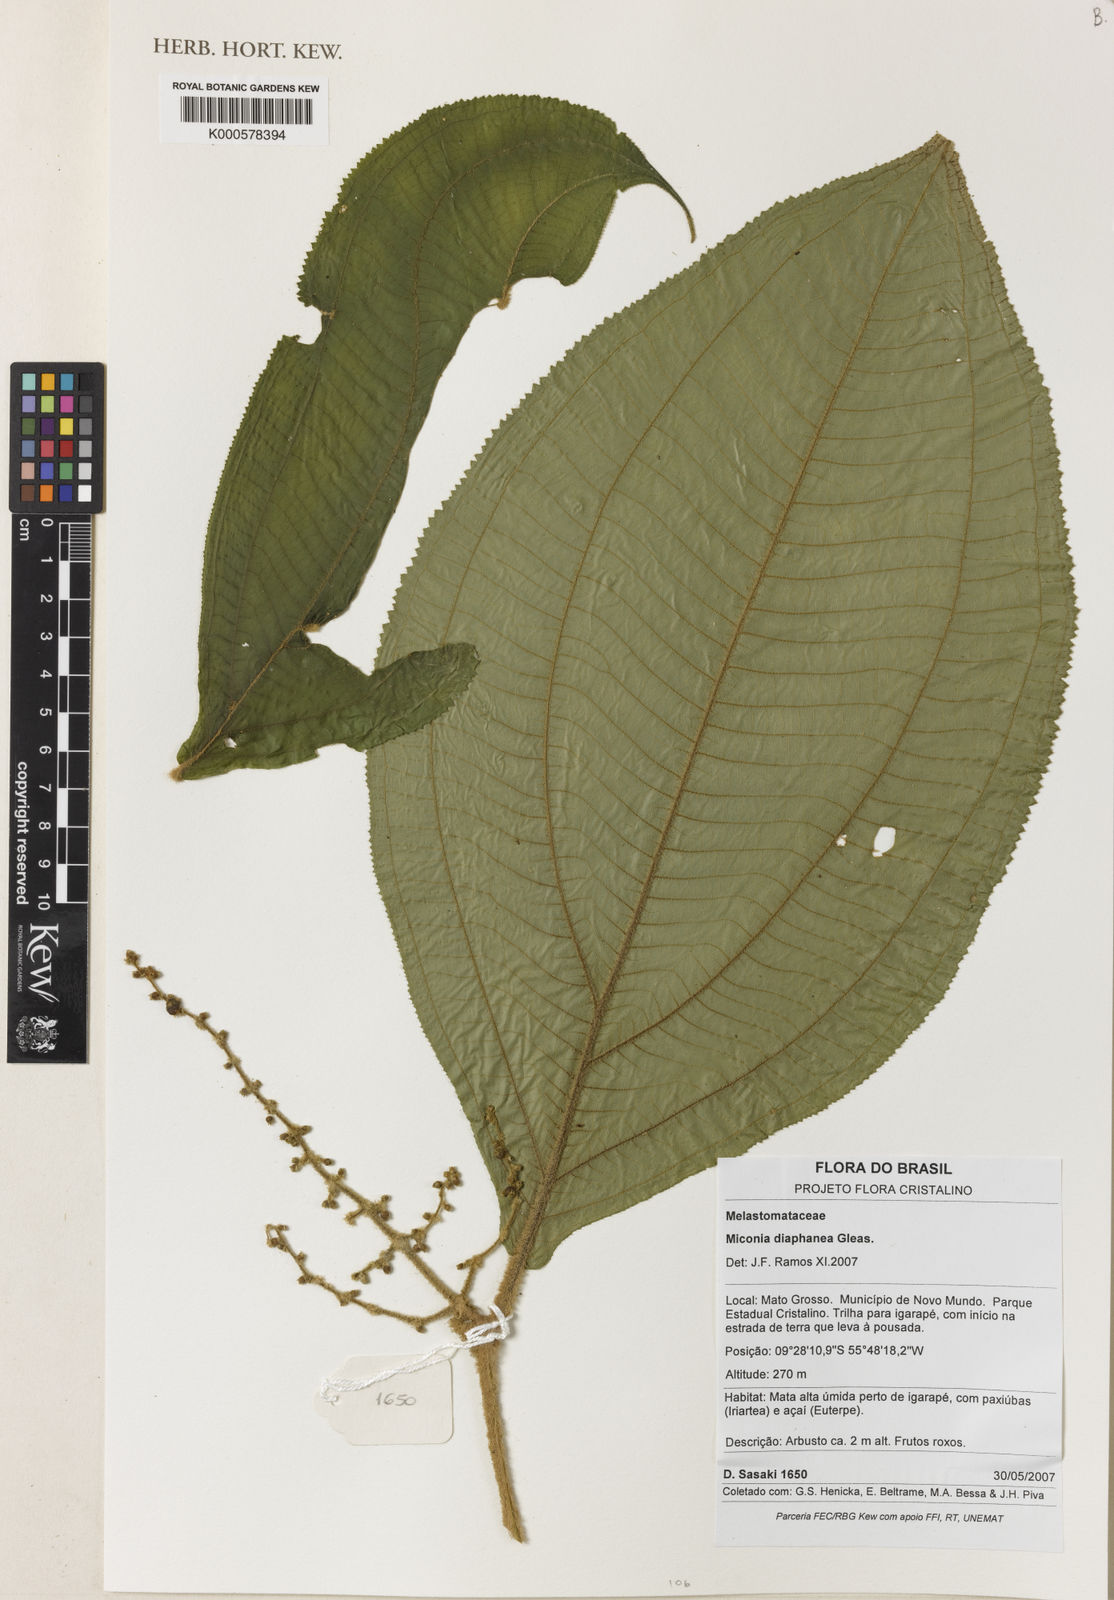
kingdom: Plantae
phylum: Tracheophyta
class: Magnoliopsida
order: Myrtales
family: Melastomataceae
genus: Miconia
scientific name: Miconia diaphanea
